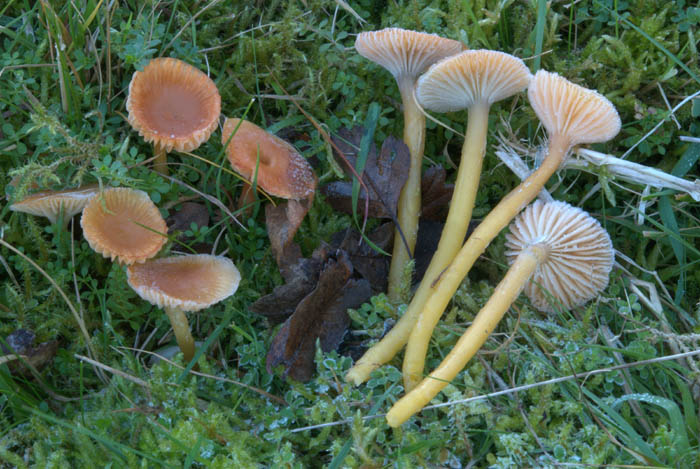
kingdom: Fungi
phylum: Basidiomycota
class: Agaricomycetes
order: Agaricales
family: Hygrophoraceae
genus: Gliophorus
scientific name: Gliophorus laetus
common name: brusk-vokshat
